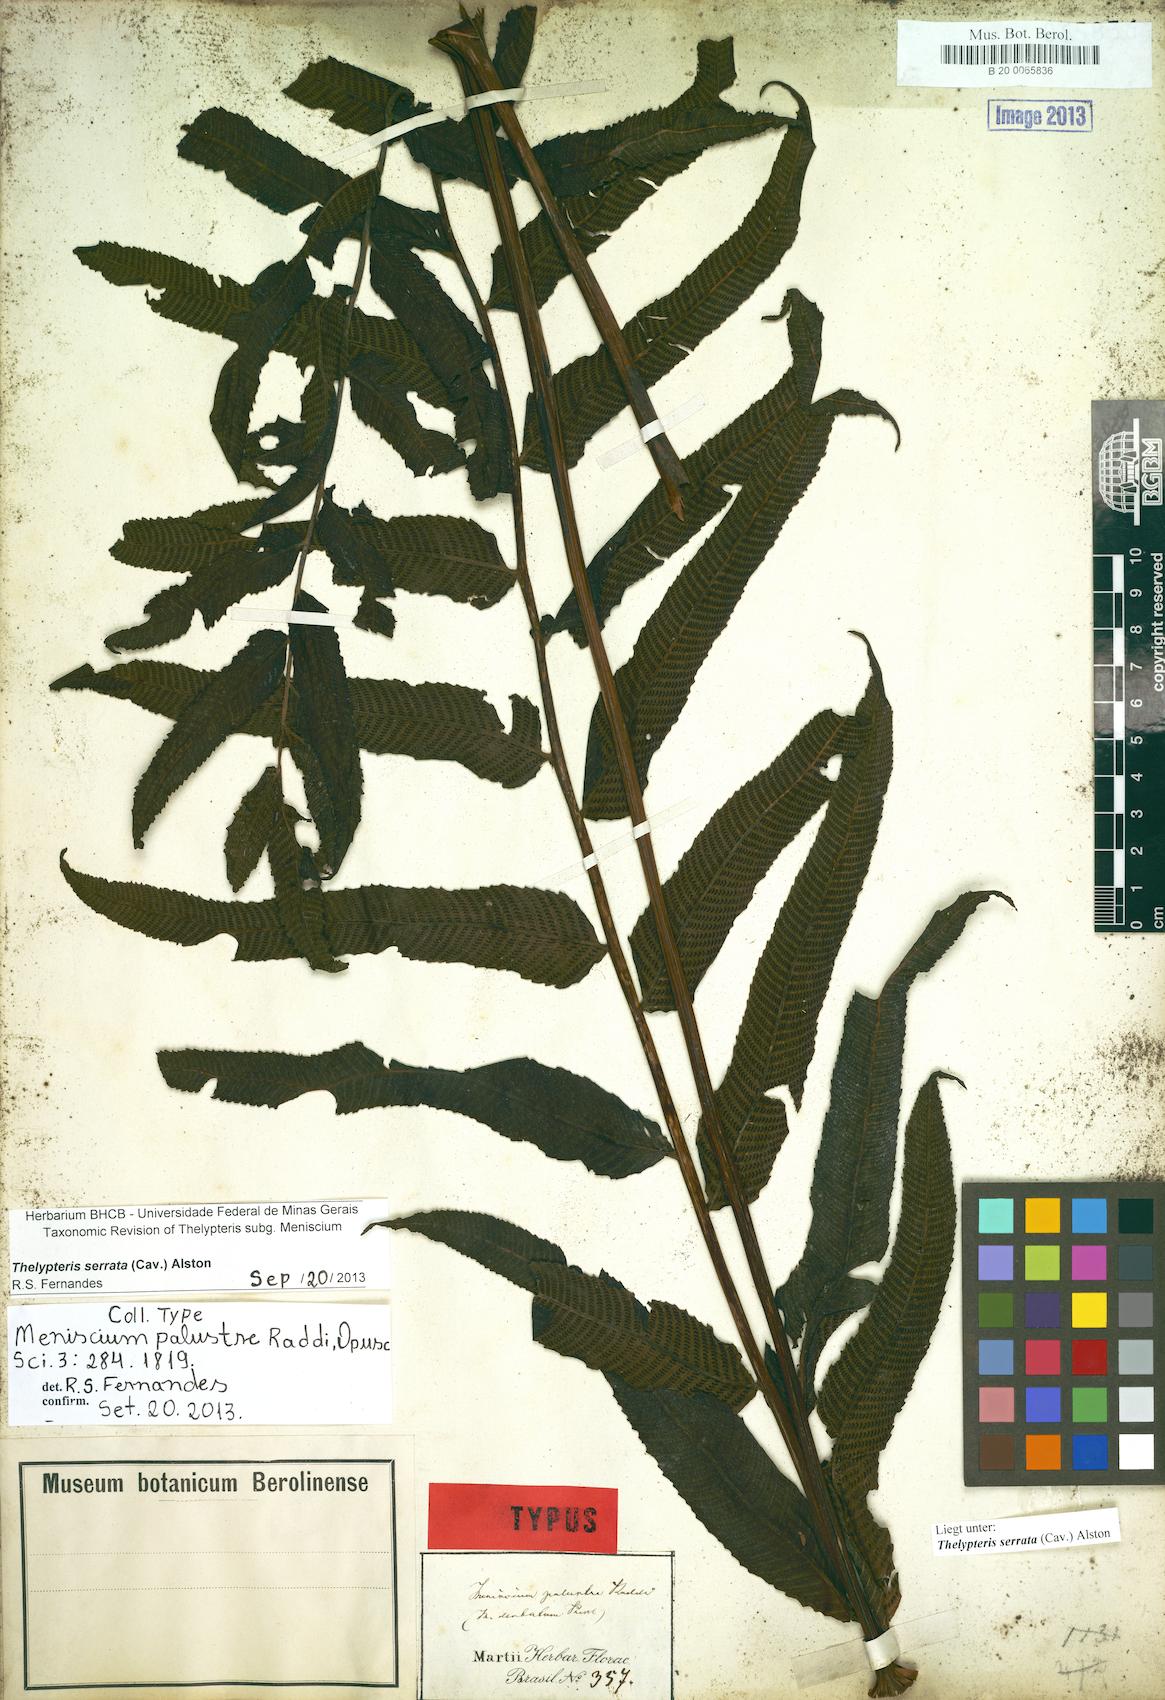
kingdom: Plantae
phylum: Tracheophyta
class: Polypodiopsida
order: Polypodiales
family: Thelypteridaceae
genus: Meniscium
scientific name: Meniscium serratum
